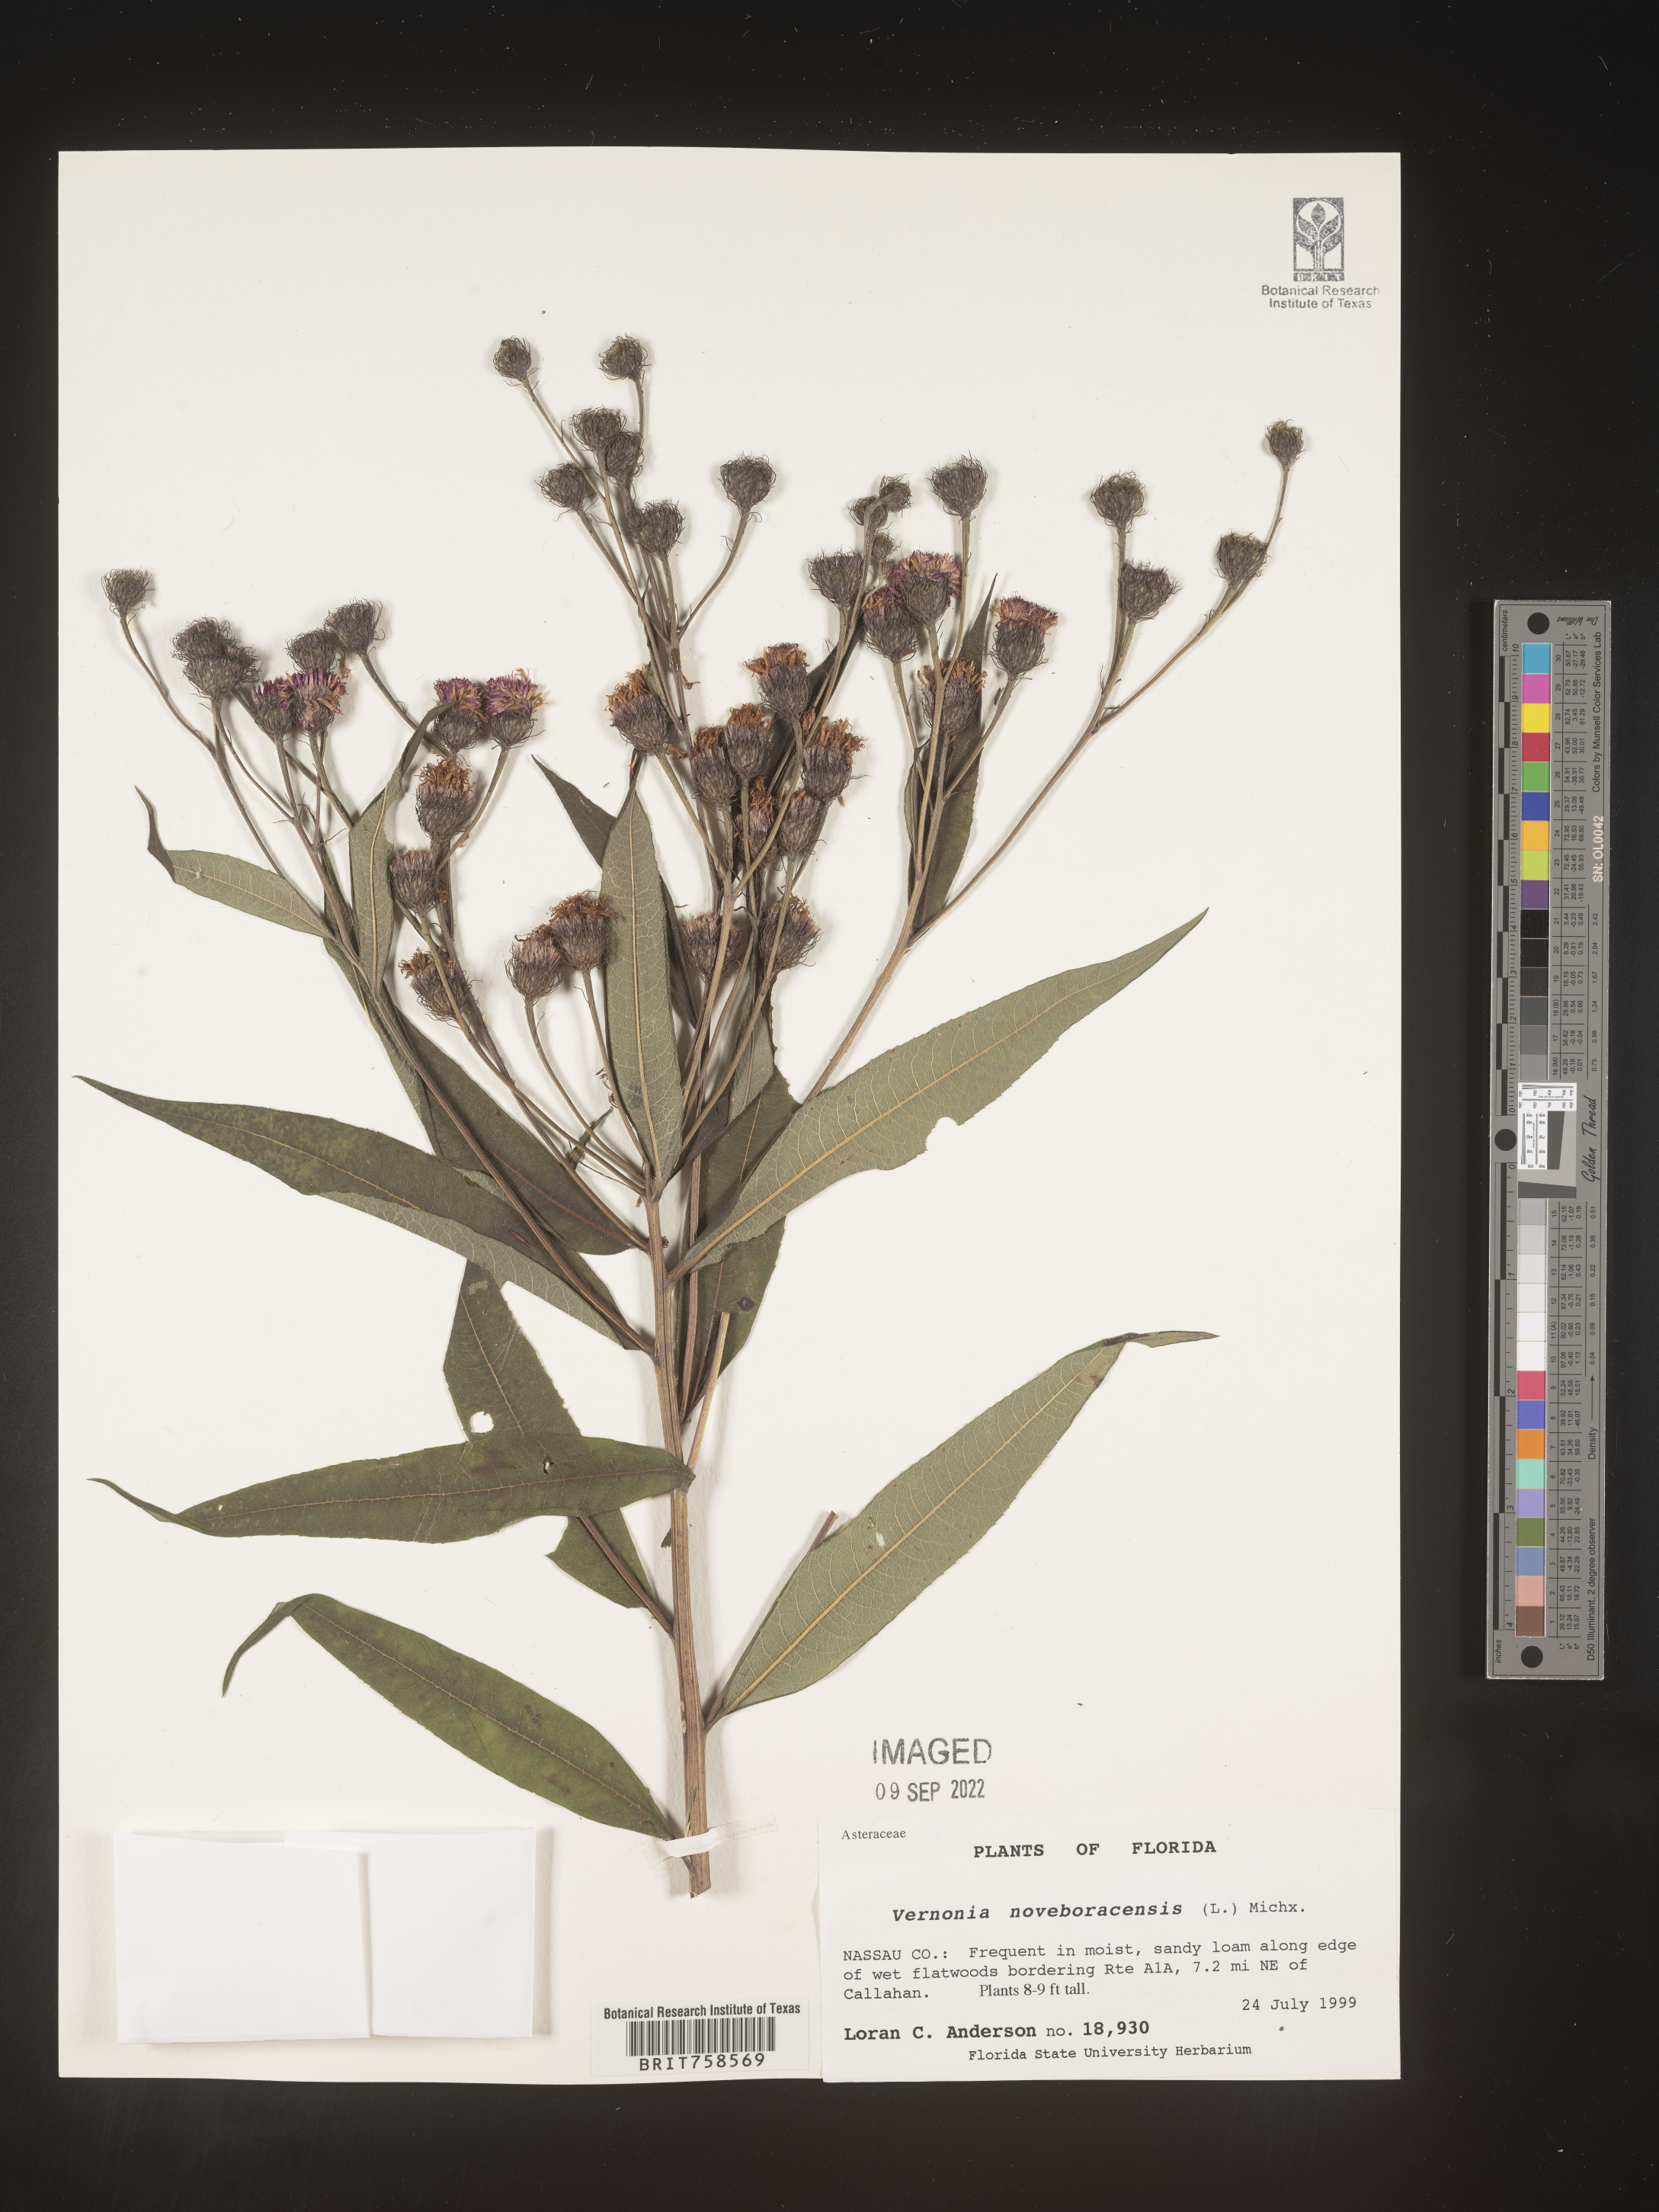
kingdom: Plantae
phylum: Tracheophyta
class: Magnoliopsida
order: Asterales
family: Asteraceae
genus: Vernonia
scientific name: Vernonia noveboracensis
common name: New york ironweed
